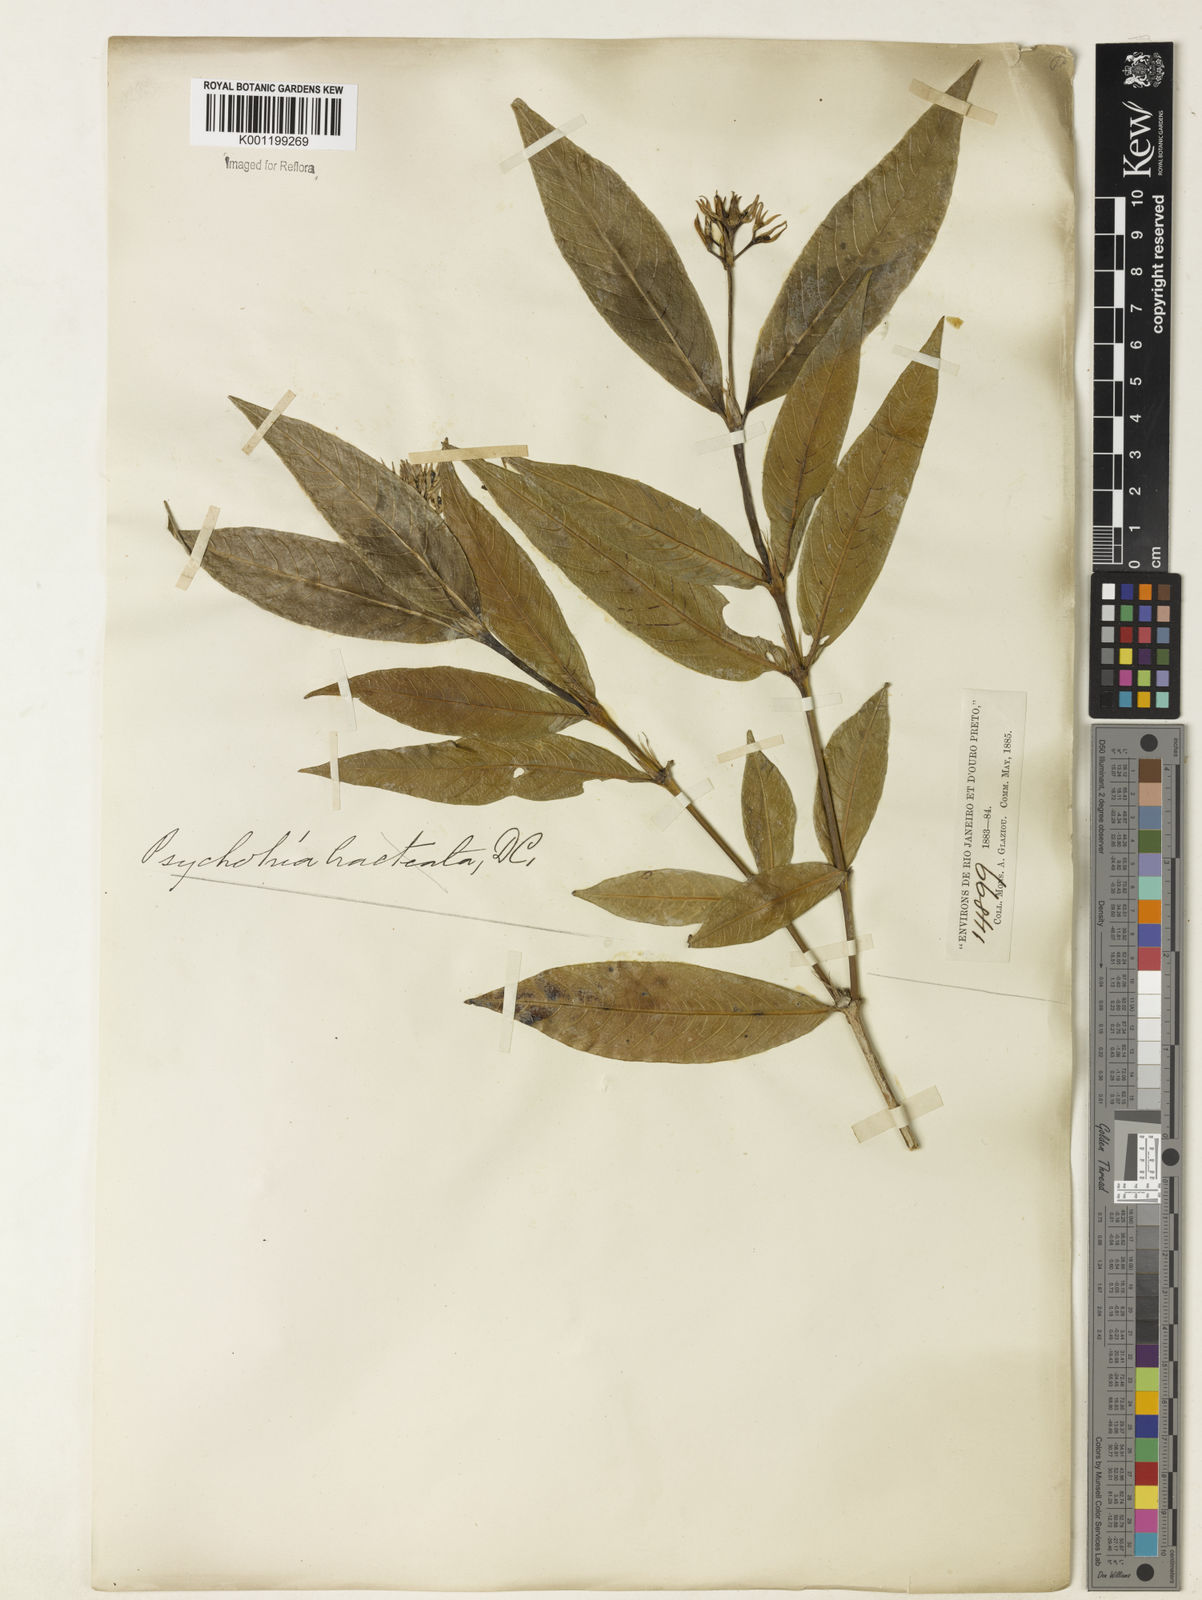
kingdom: Plantae
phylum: Tracheophyta
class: Magnoliopsida
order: Gentianales
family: Rubiaceae
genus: Palicourea
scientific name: Palicourea violacea
